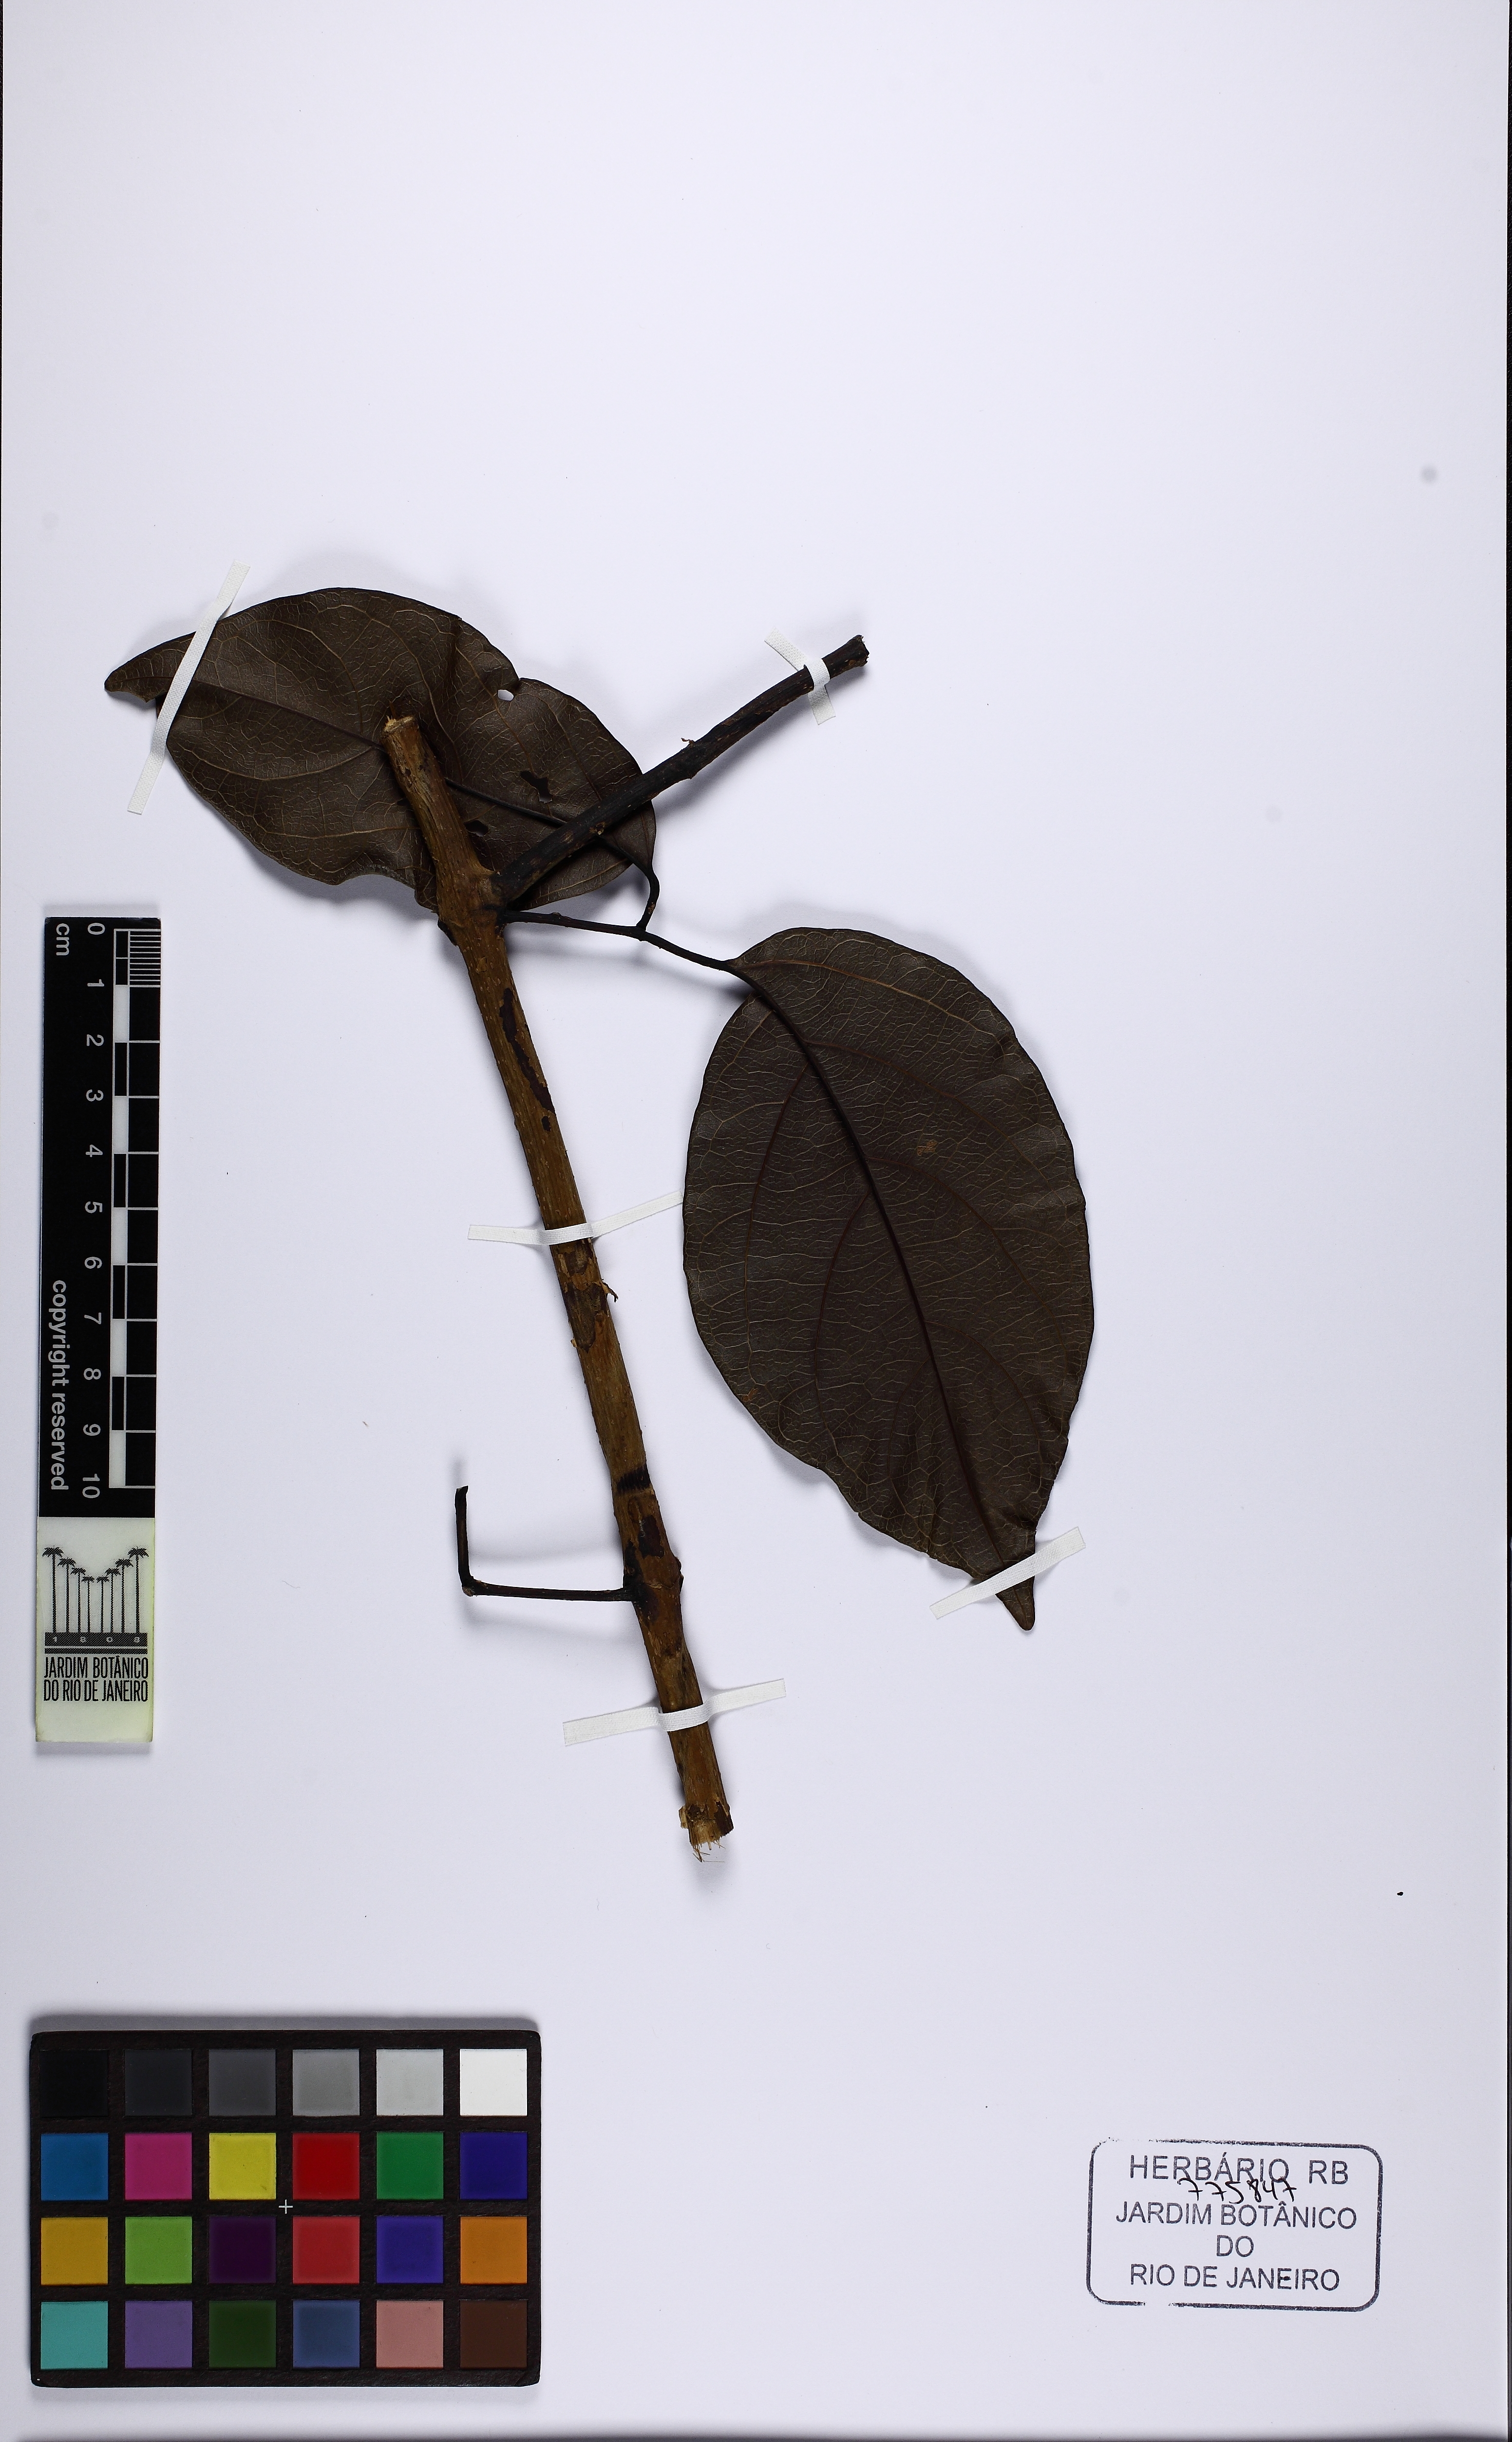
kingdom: Plantae
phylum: Tracheophyta
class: Magnoliopsida
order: Lamiales
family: Bignoniaceae
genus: Fridericia
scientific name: Fridericia speciosa
